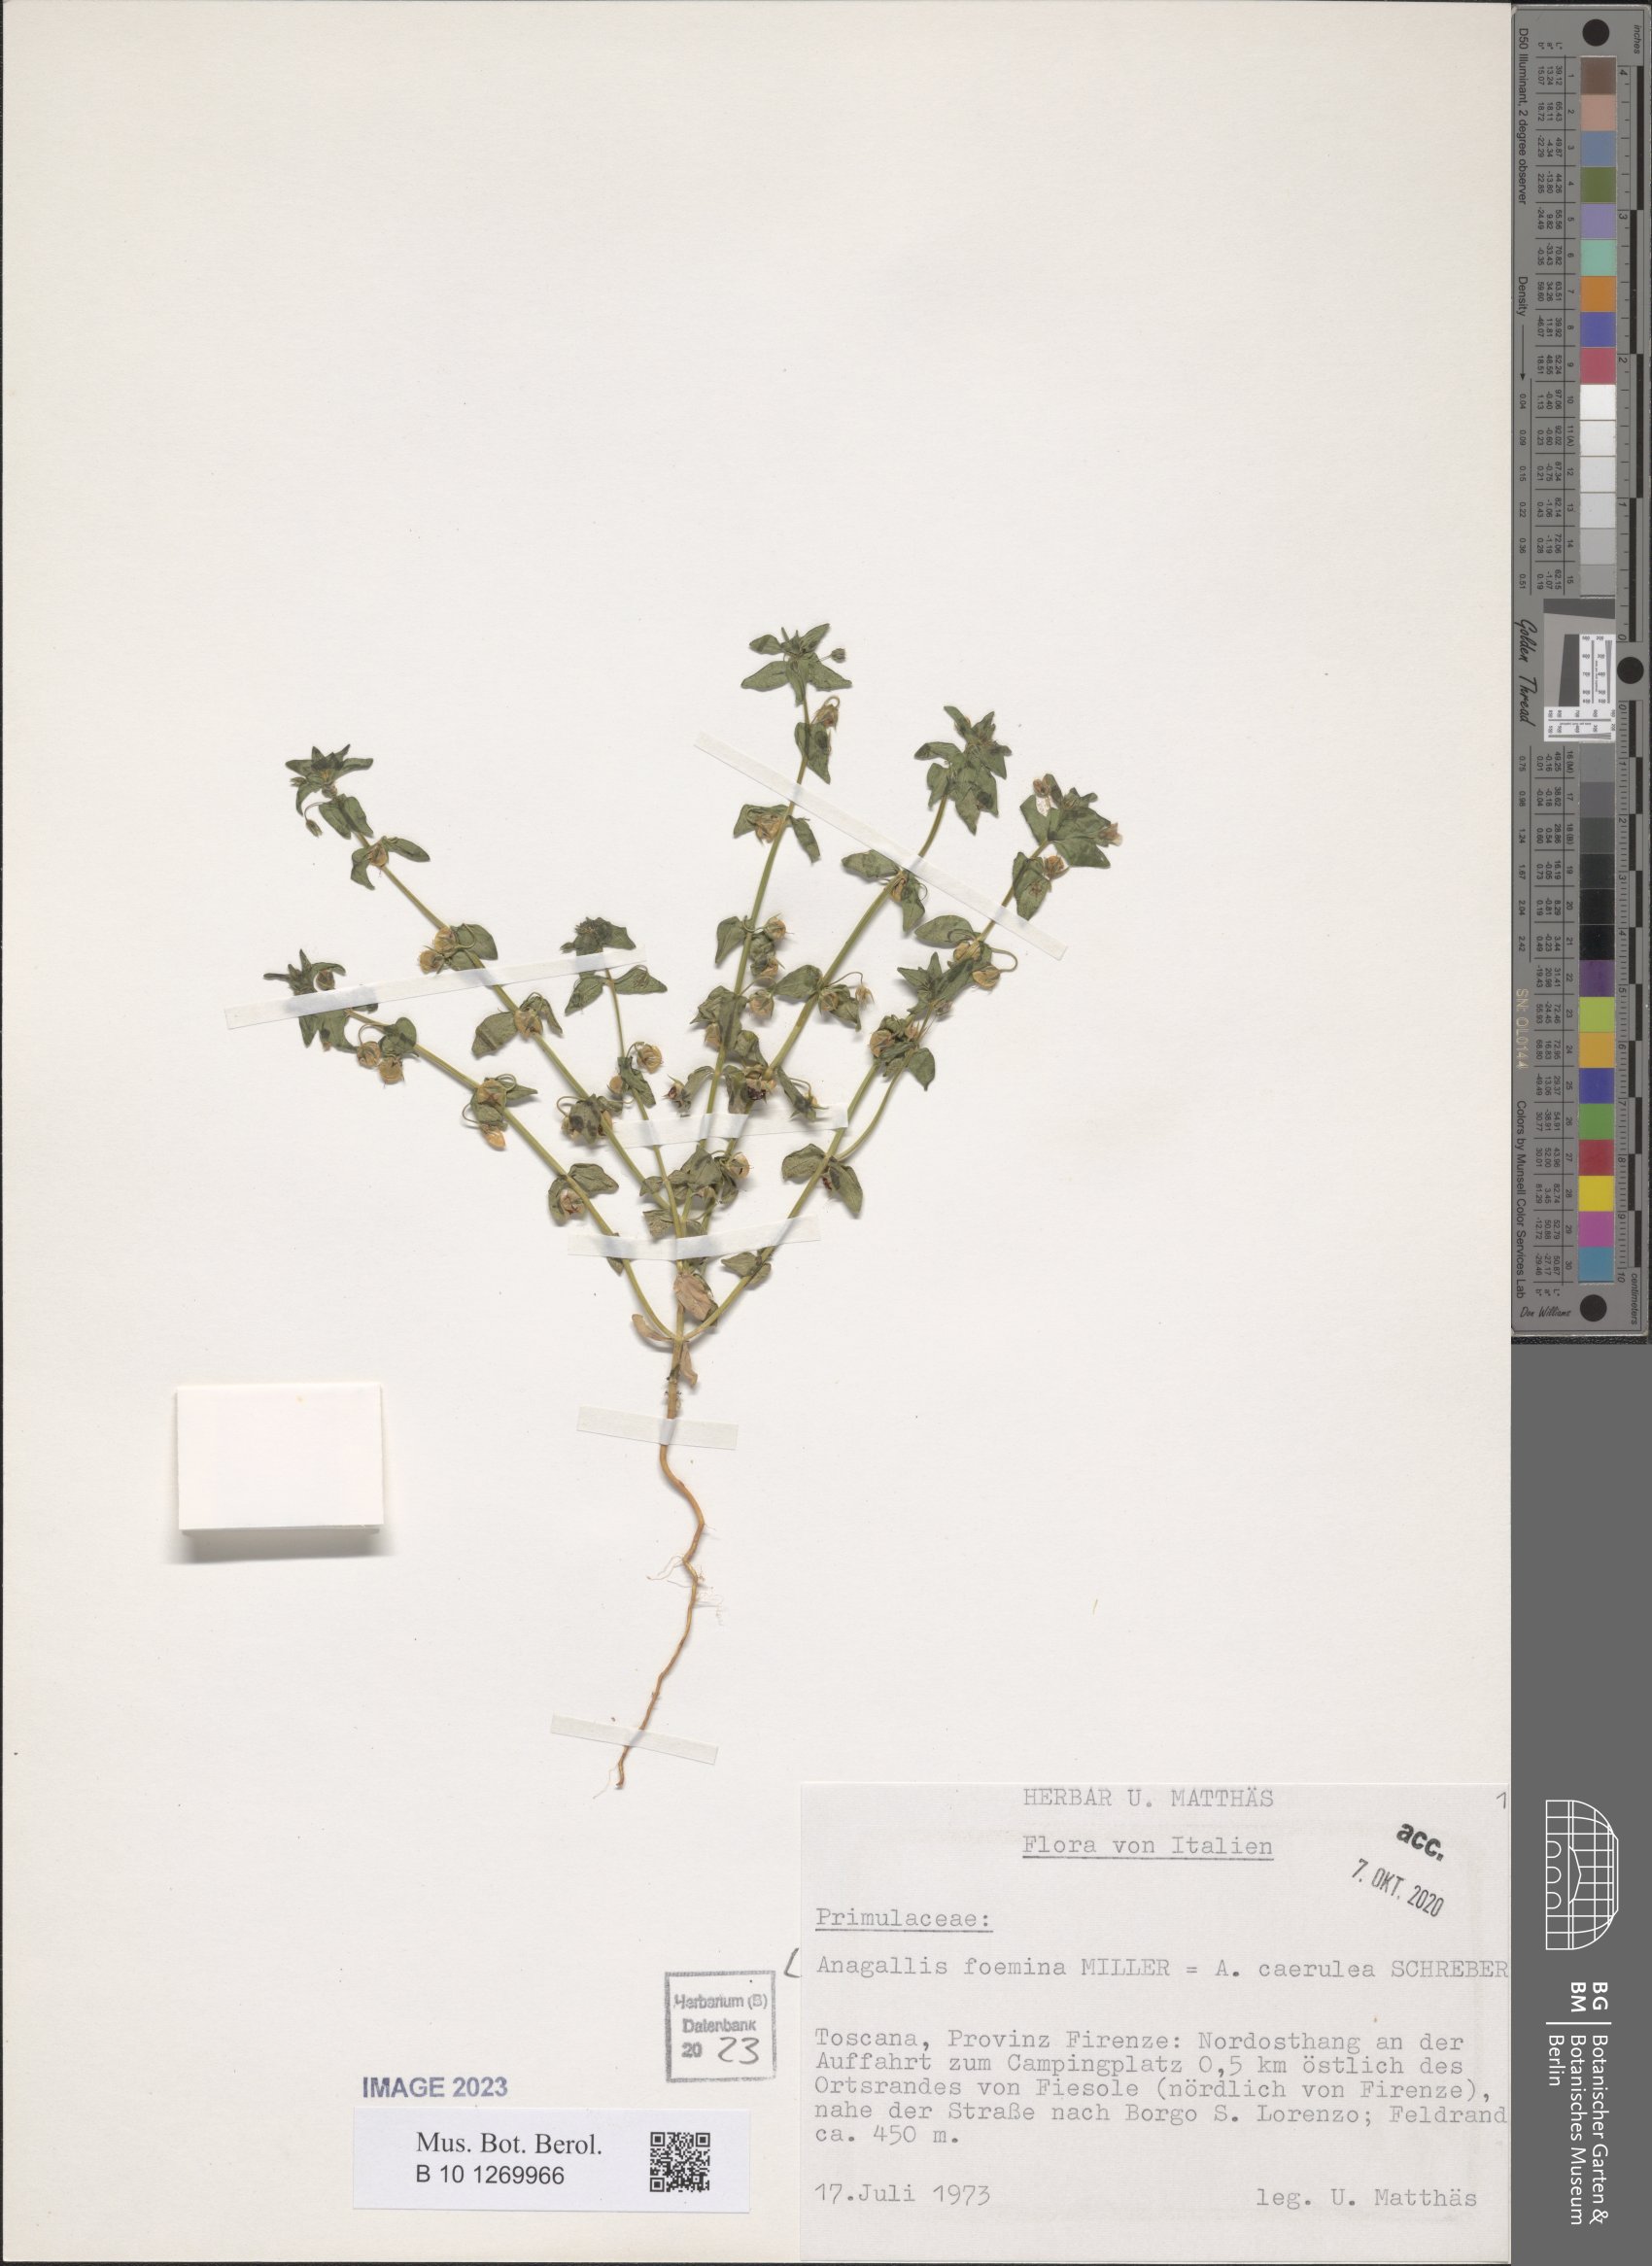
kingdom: Plantae
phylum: Tracheophyta
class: Magnoliopsida
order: Ericales
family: Primulaceae
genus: Lysimachia
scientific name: Lysimachia foemina
